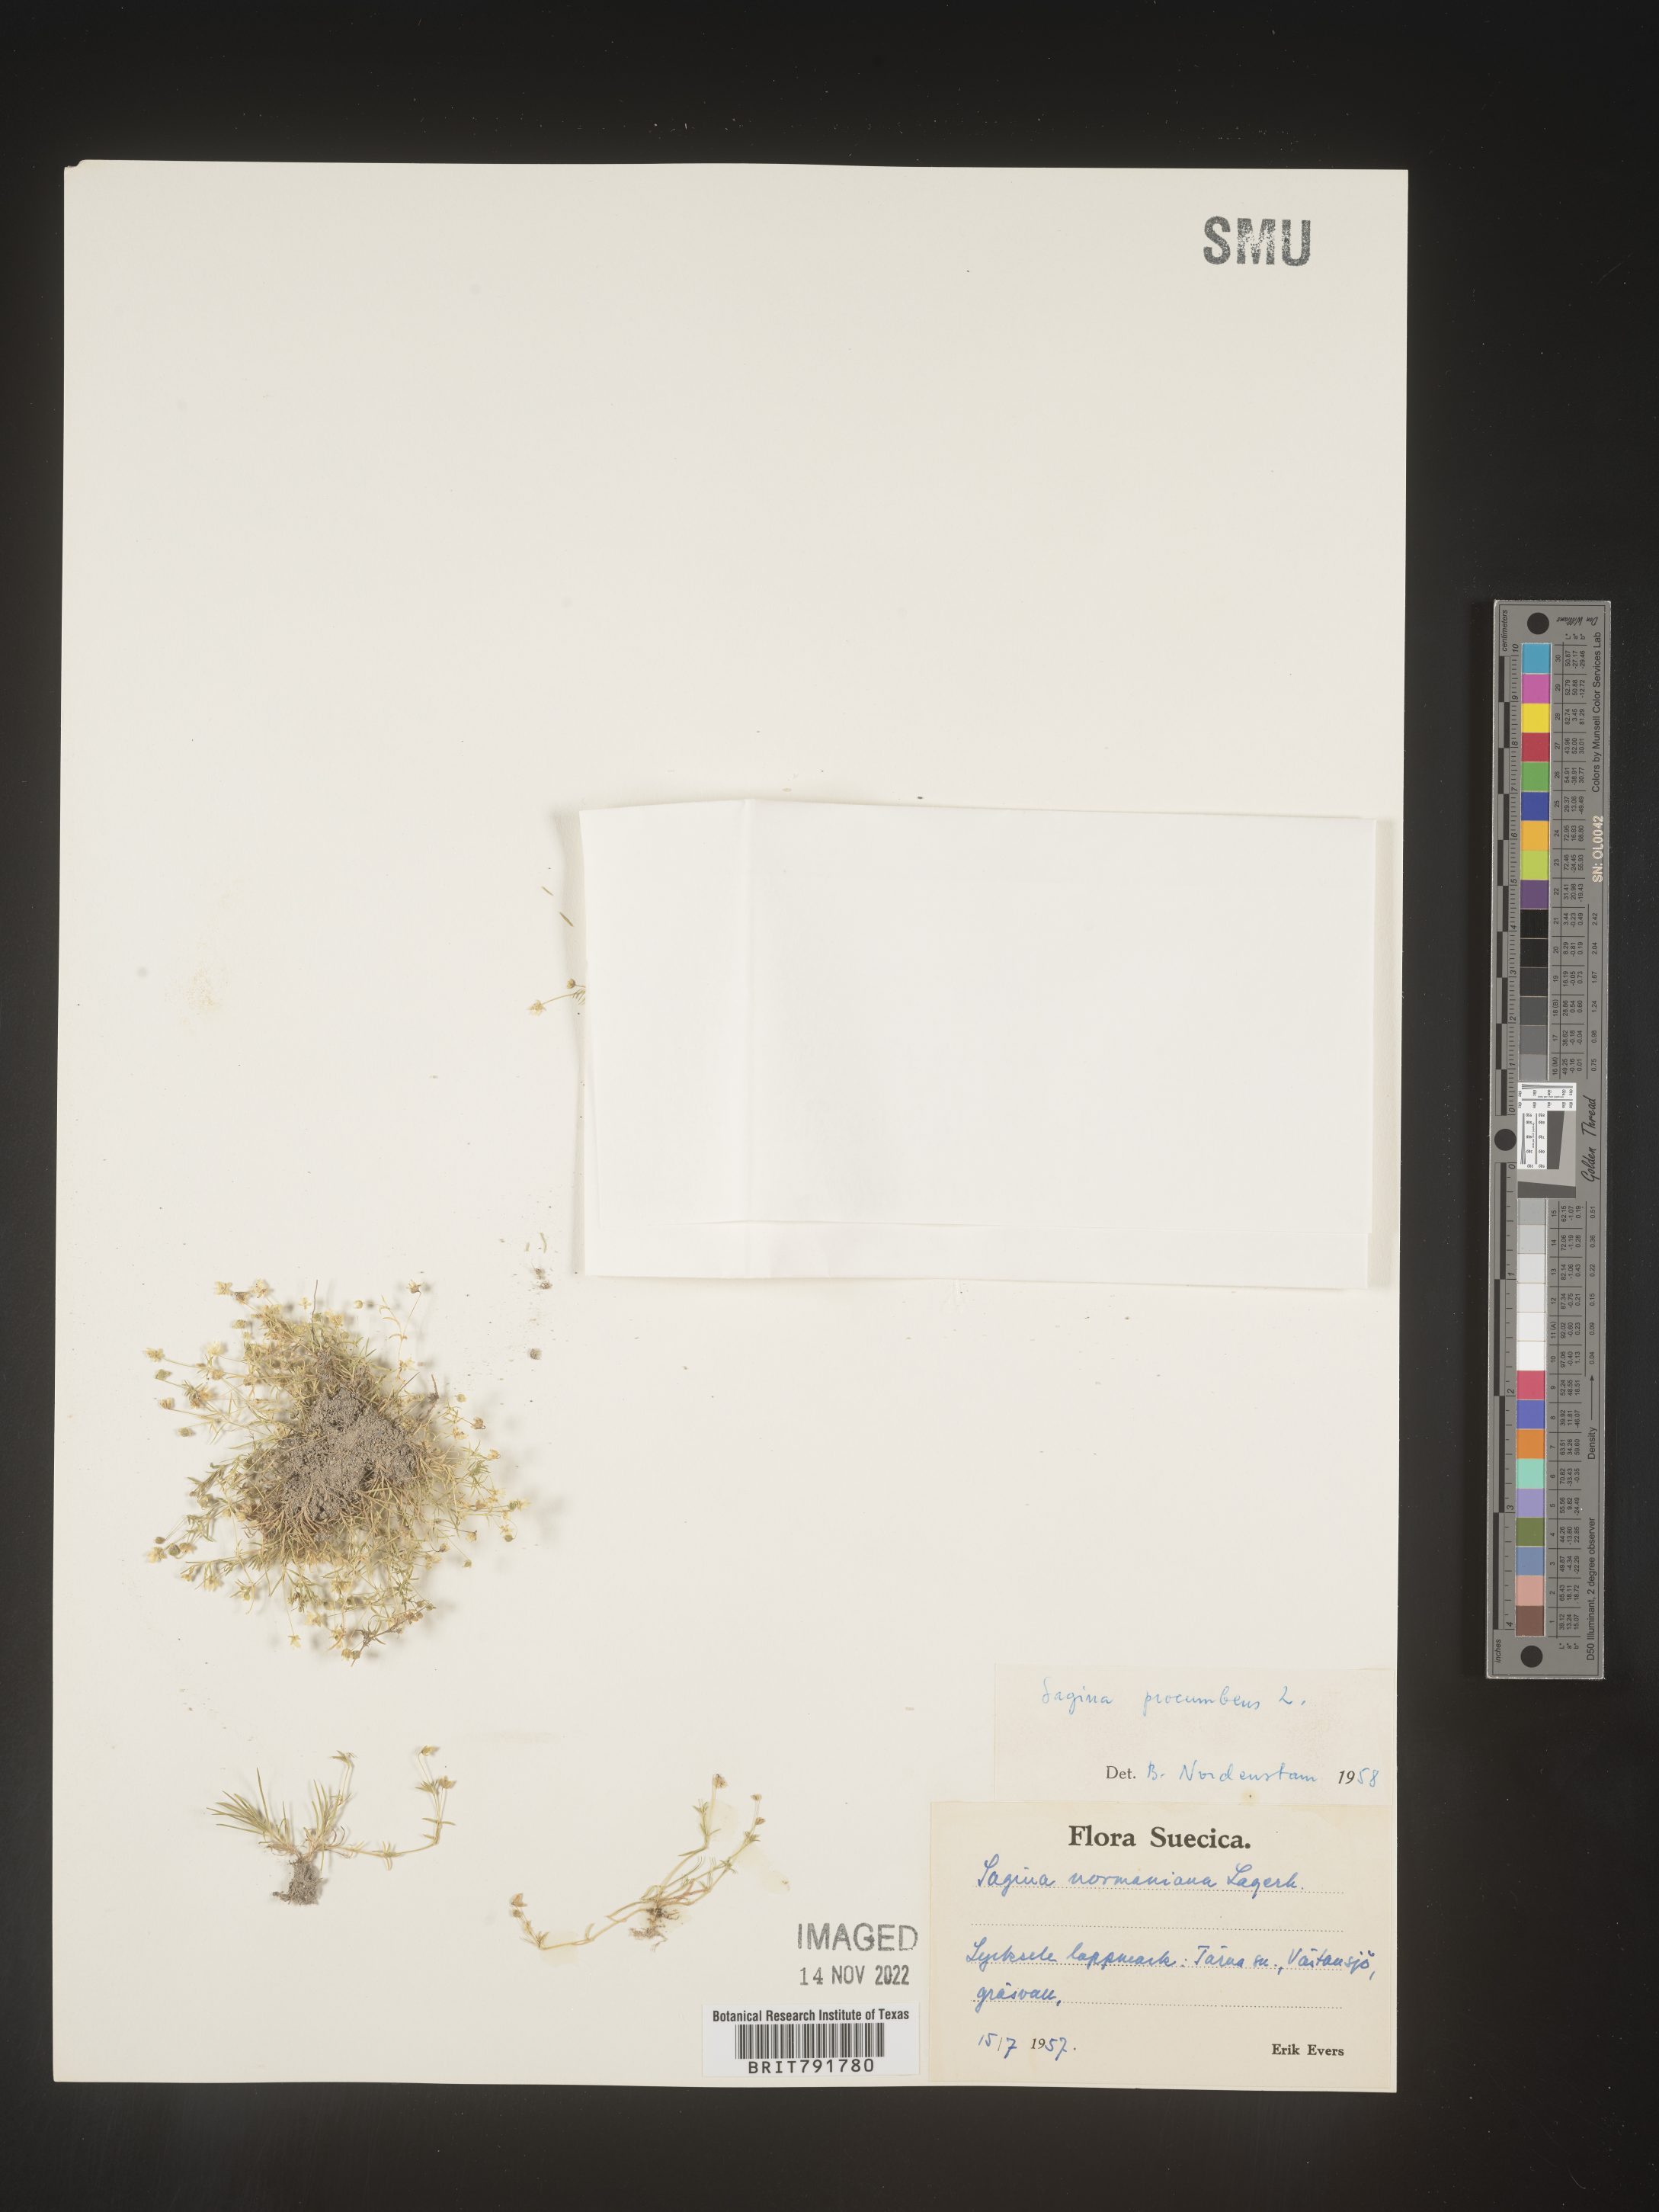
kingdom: Plantae
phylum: Tracheophyta
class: Magnoliopsida
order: Caryophyllales
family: Caryophyllaceae
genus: Sagina
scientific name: Sagina
